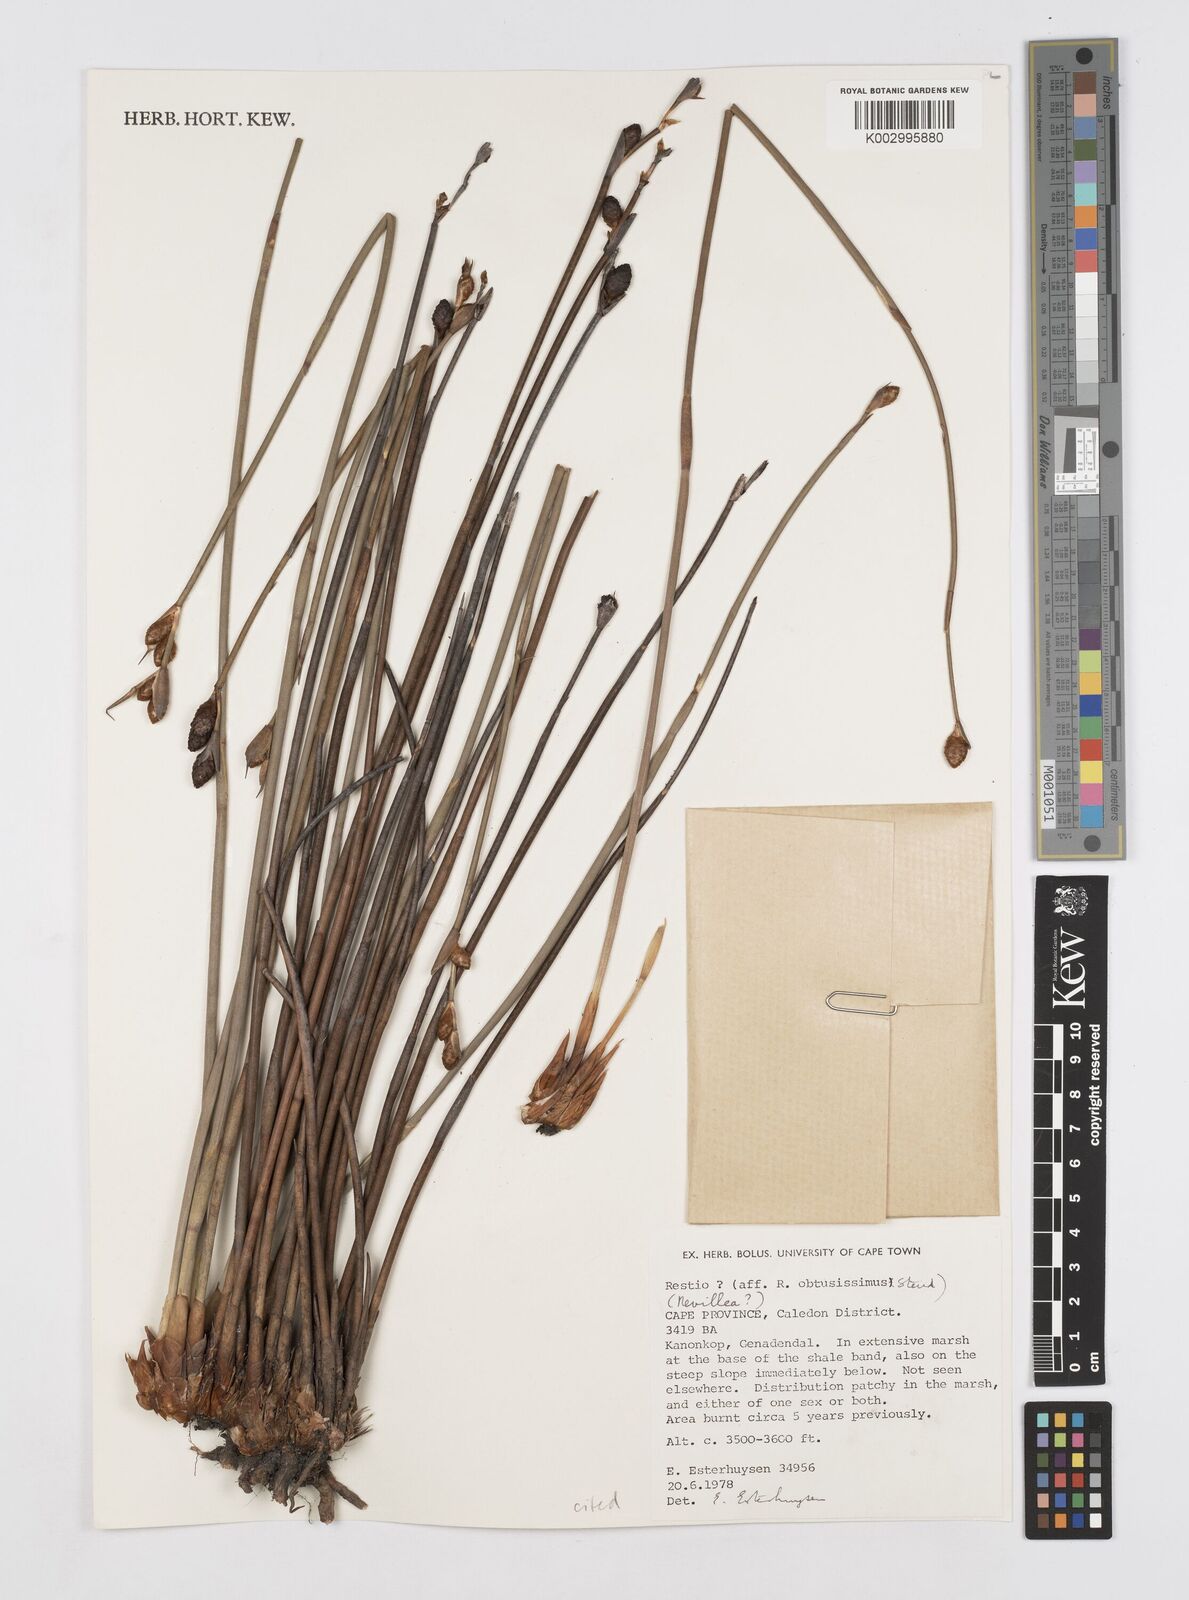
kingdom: Plantae
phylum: Tracheophyta
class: Liliopsida
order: Poales
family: Restionaceae
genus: Nevillea
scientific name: Nevillea
